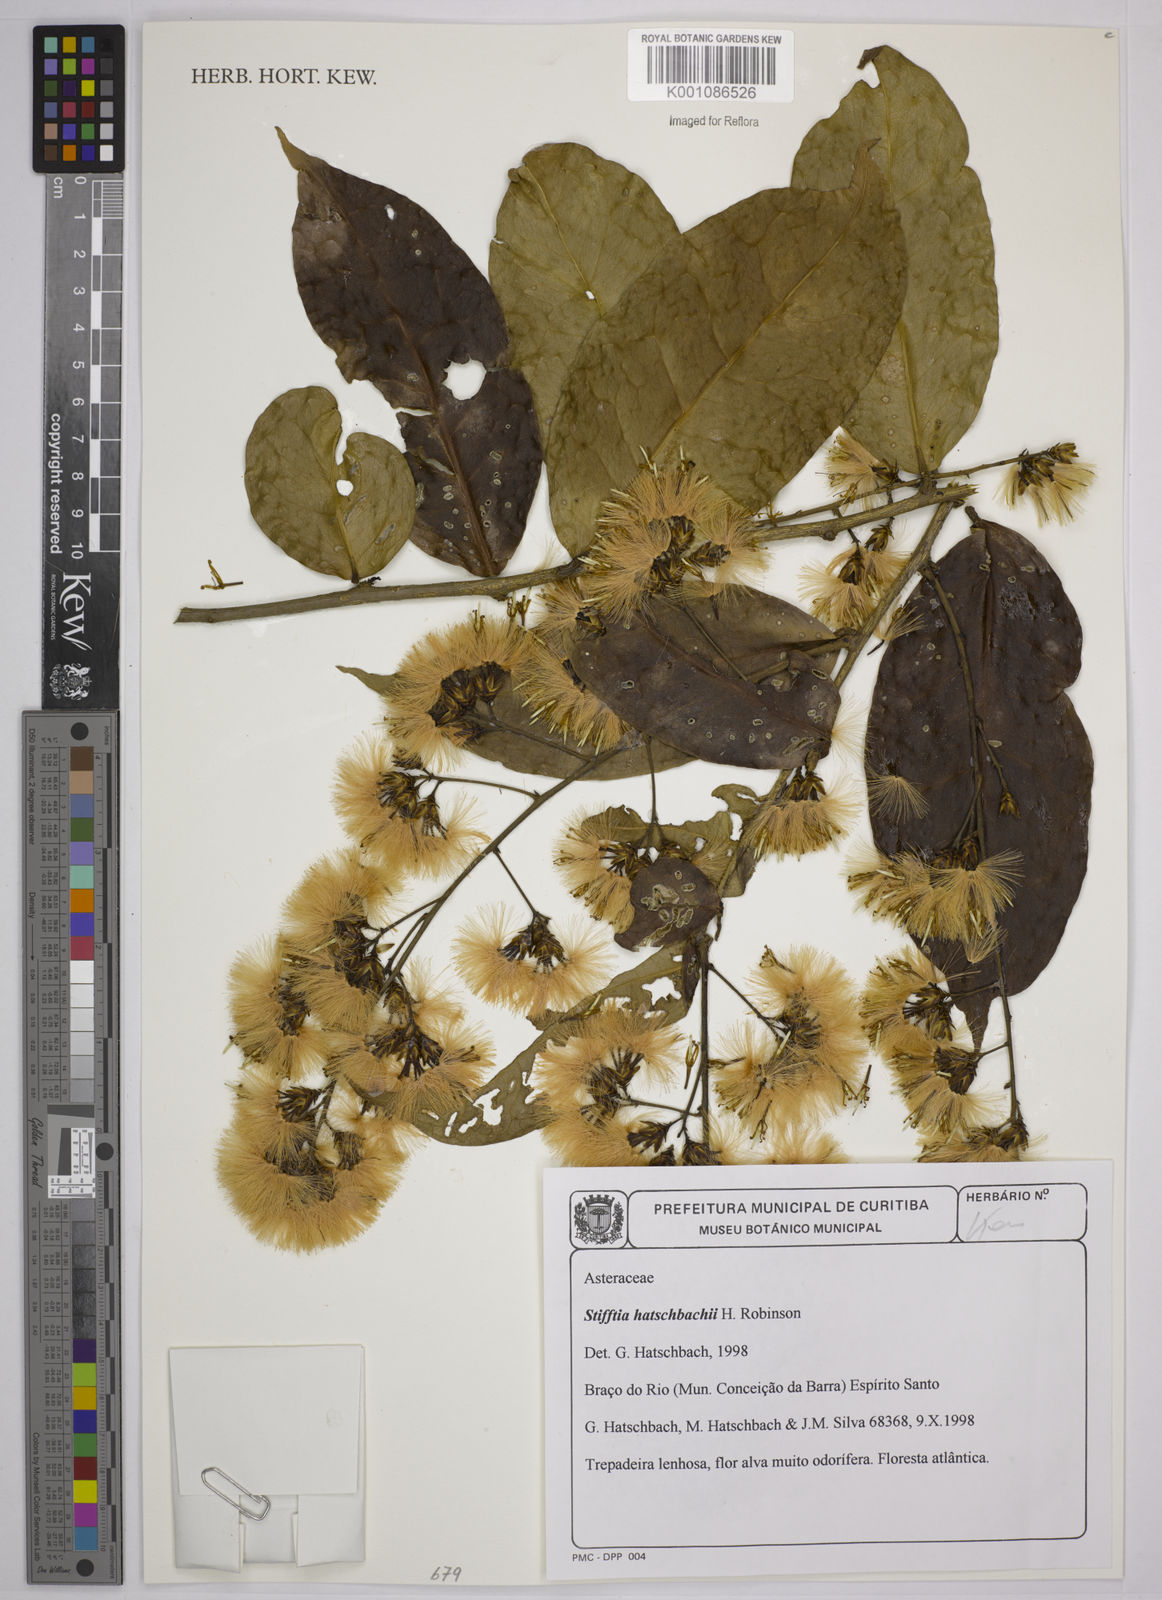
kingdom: Plantae
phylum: Tracheophyta
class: Magnoliopsida
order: Asterales
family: Asteraceae
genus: Stifftia
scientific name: Stifftia hatschbachii
